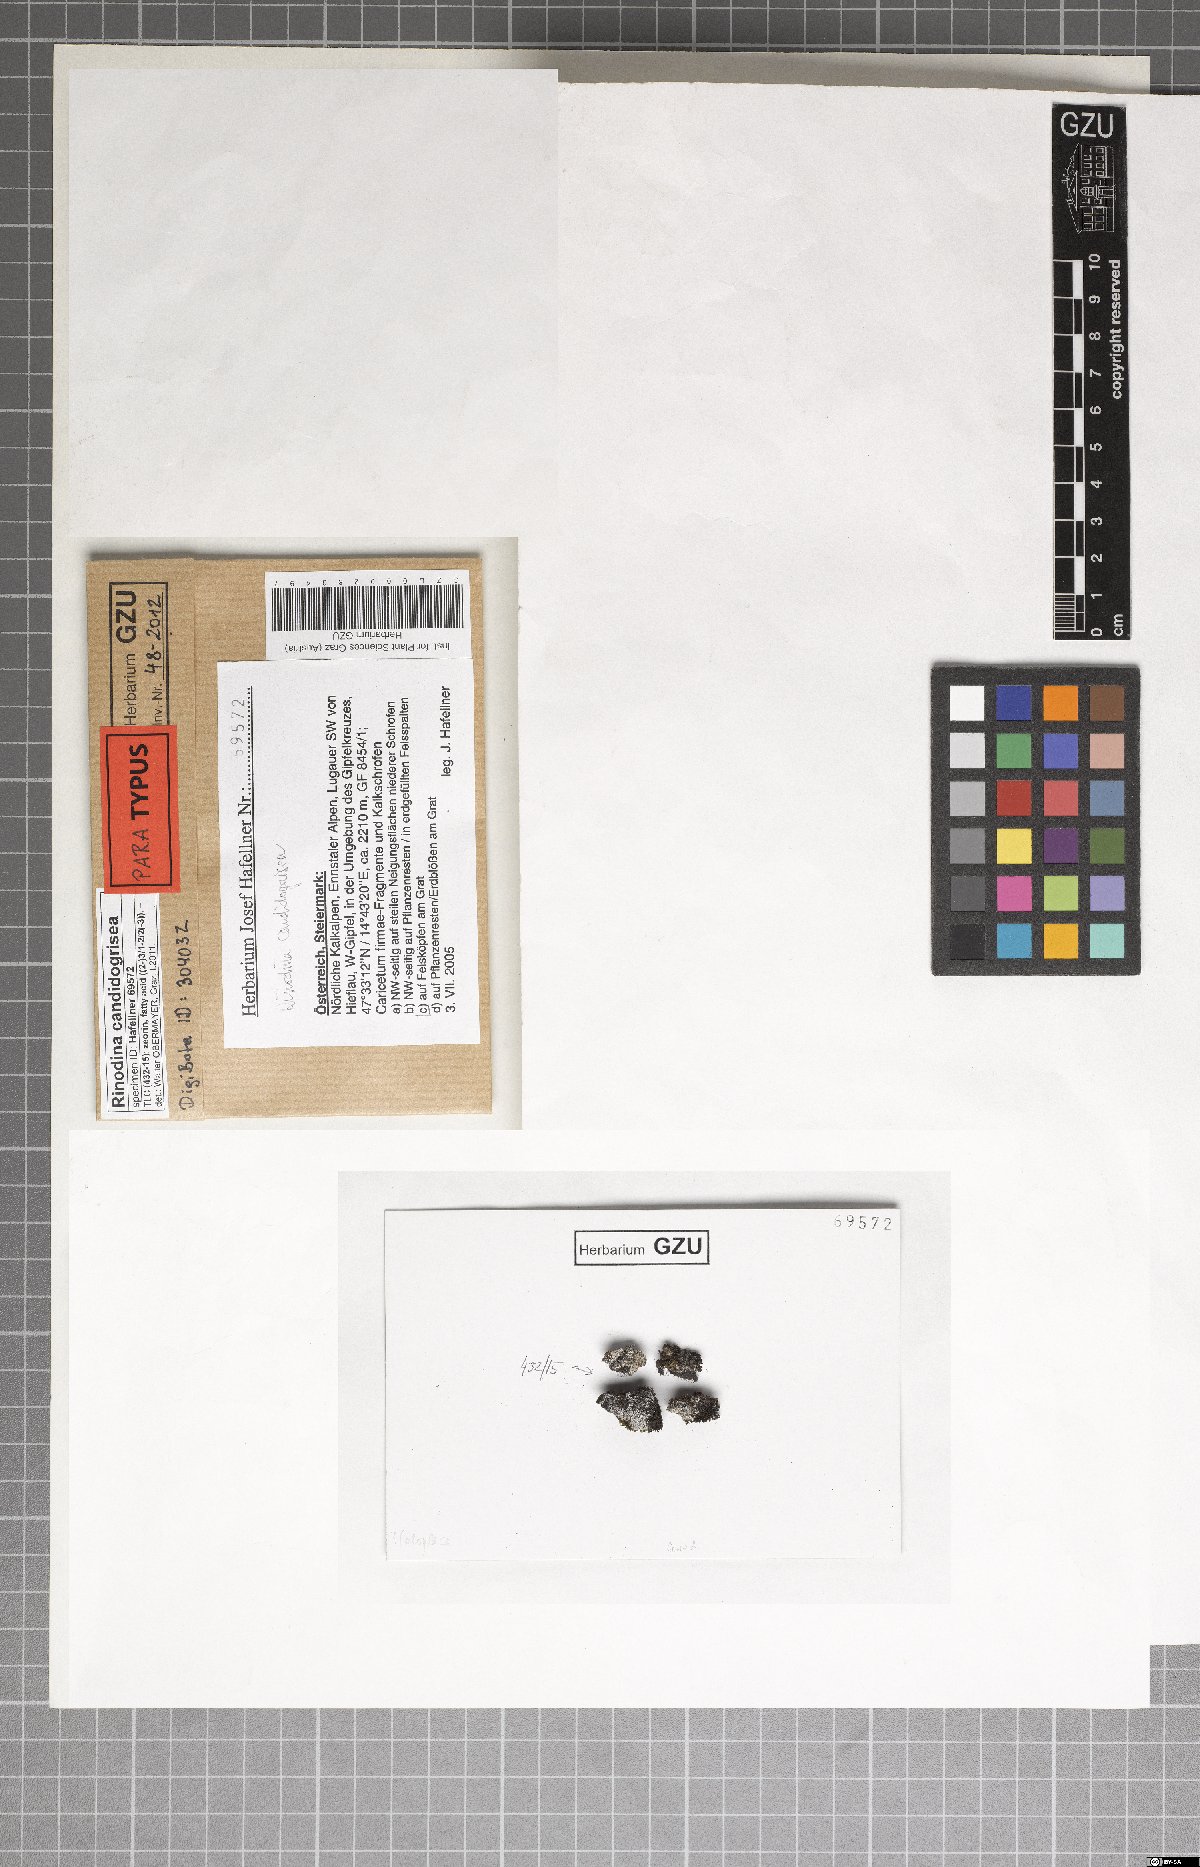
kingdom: Fungi
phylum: Ascomycota
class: Lecanoromycetes
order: Caliciales
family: Physciaceae
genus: Kudratovia
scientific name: Kudratovia candidogrisea
